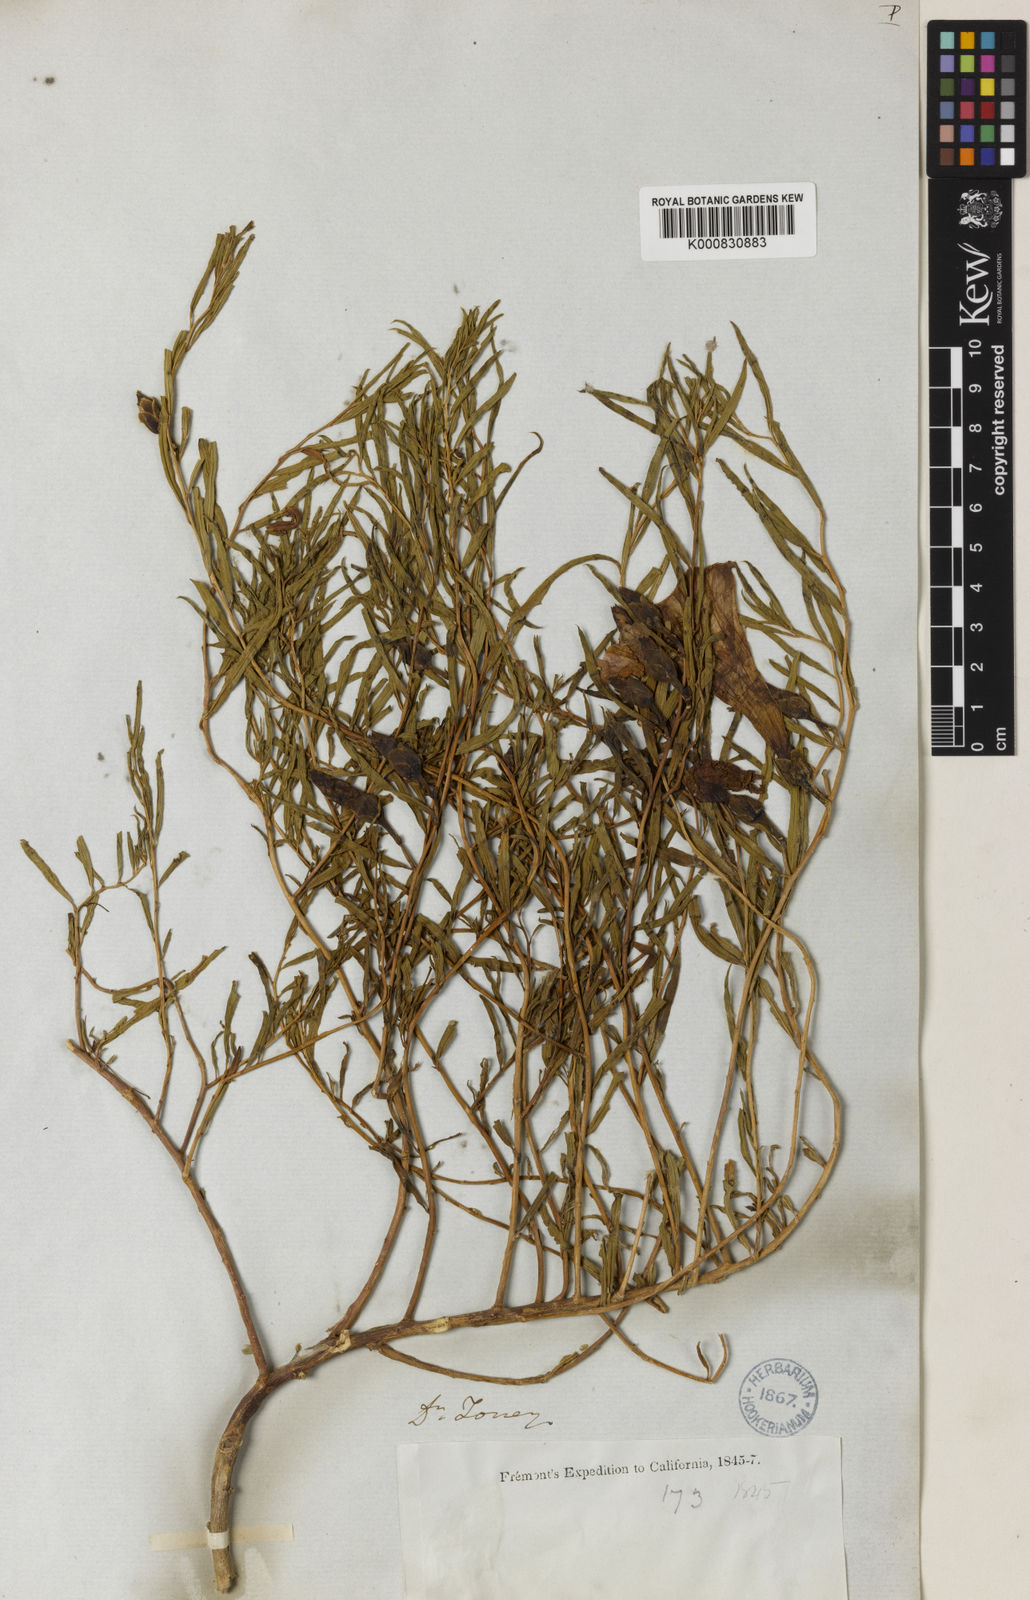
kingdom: Plantae
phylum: Tracheophyta
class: Magnoliopsida
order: Solanales
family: Convolvulaceae
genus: Ipomoea
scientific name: Ipomoea leptophylla
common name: Bush moonflower
